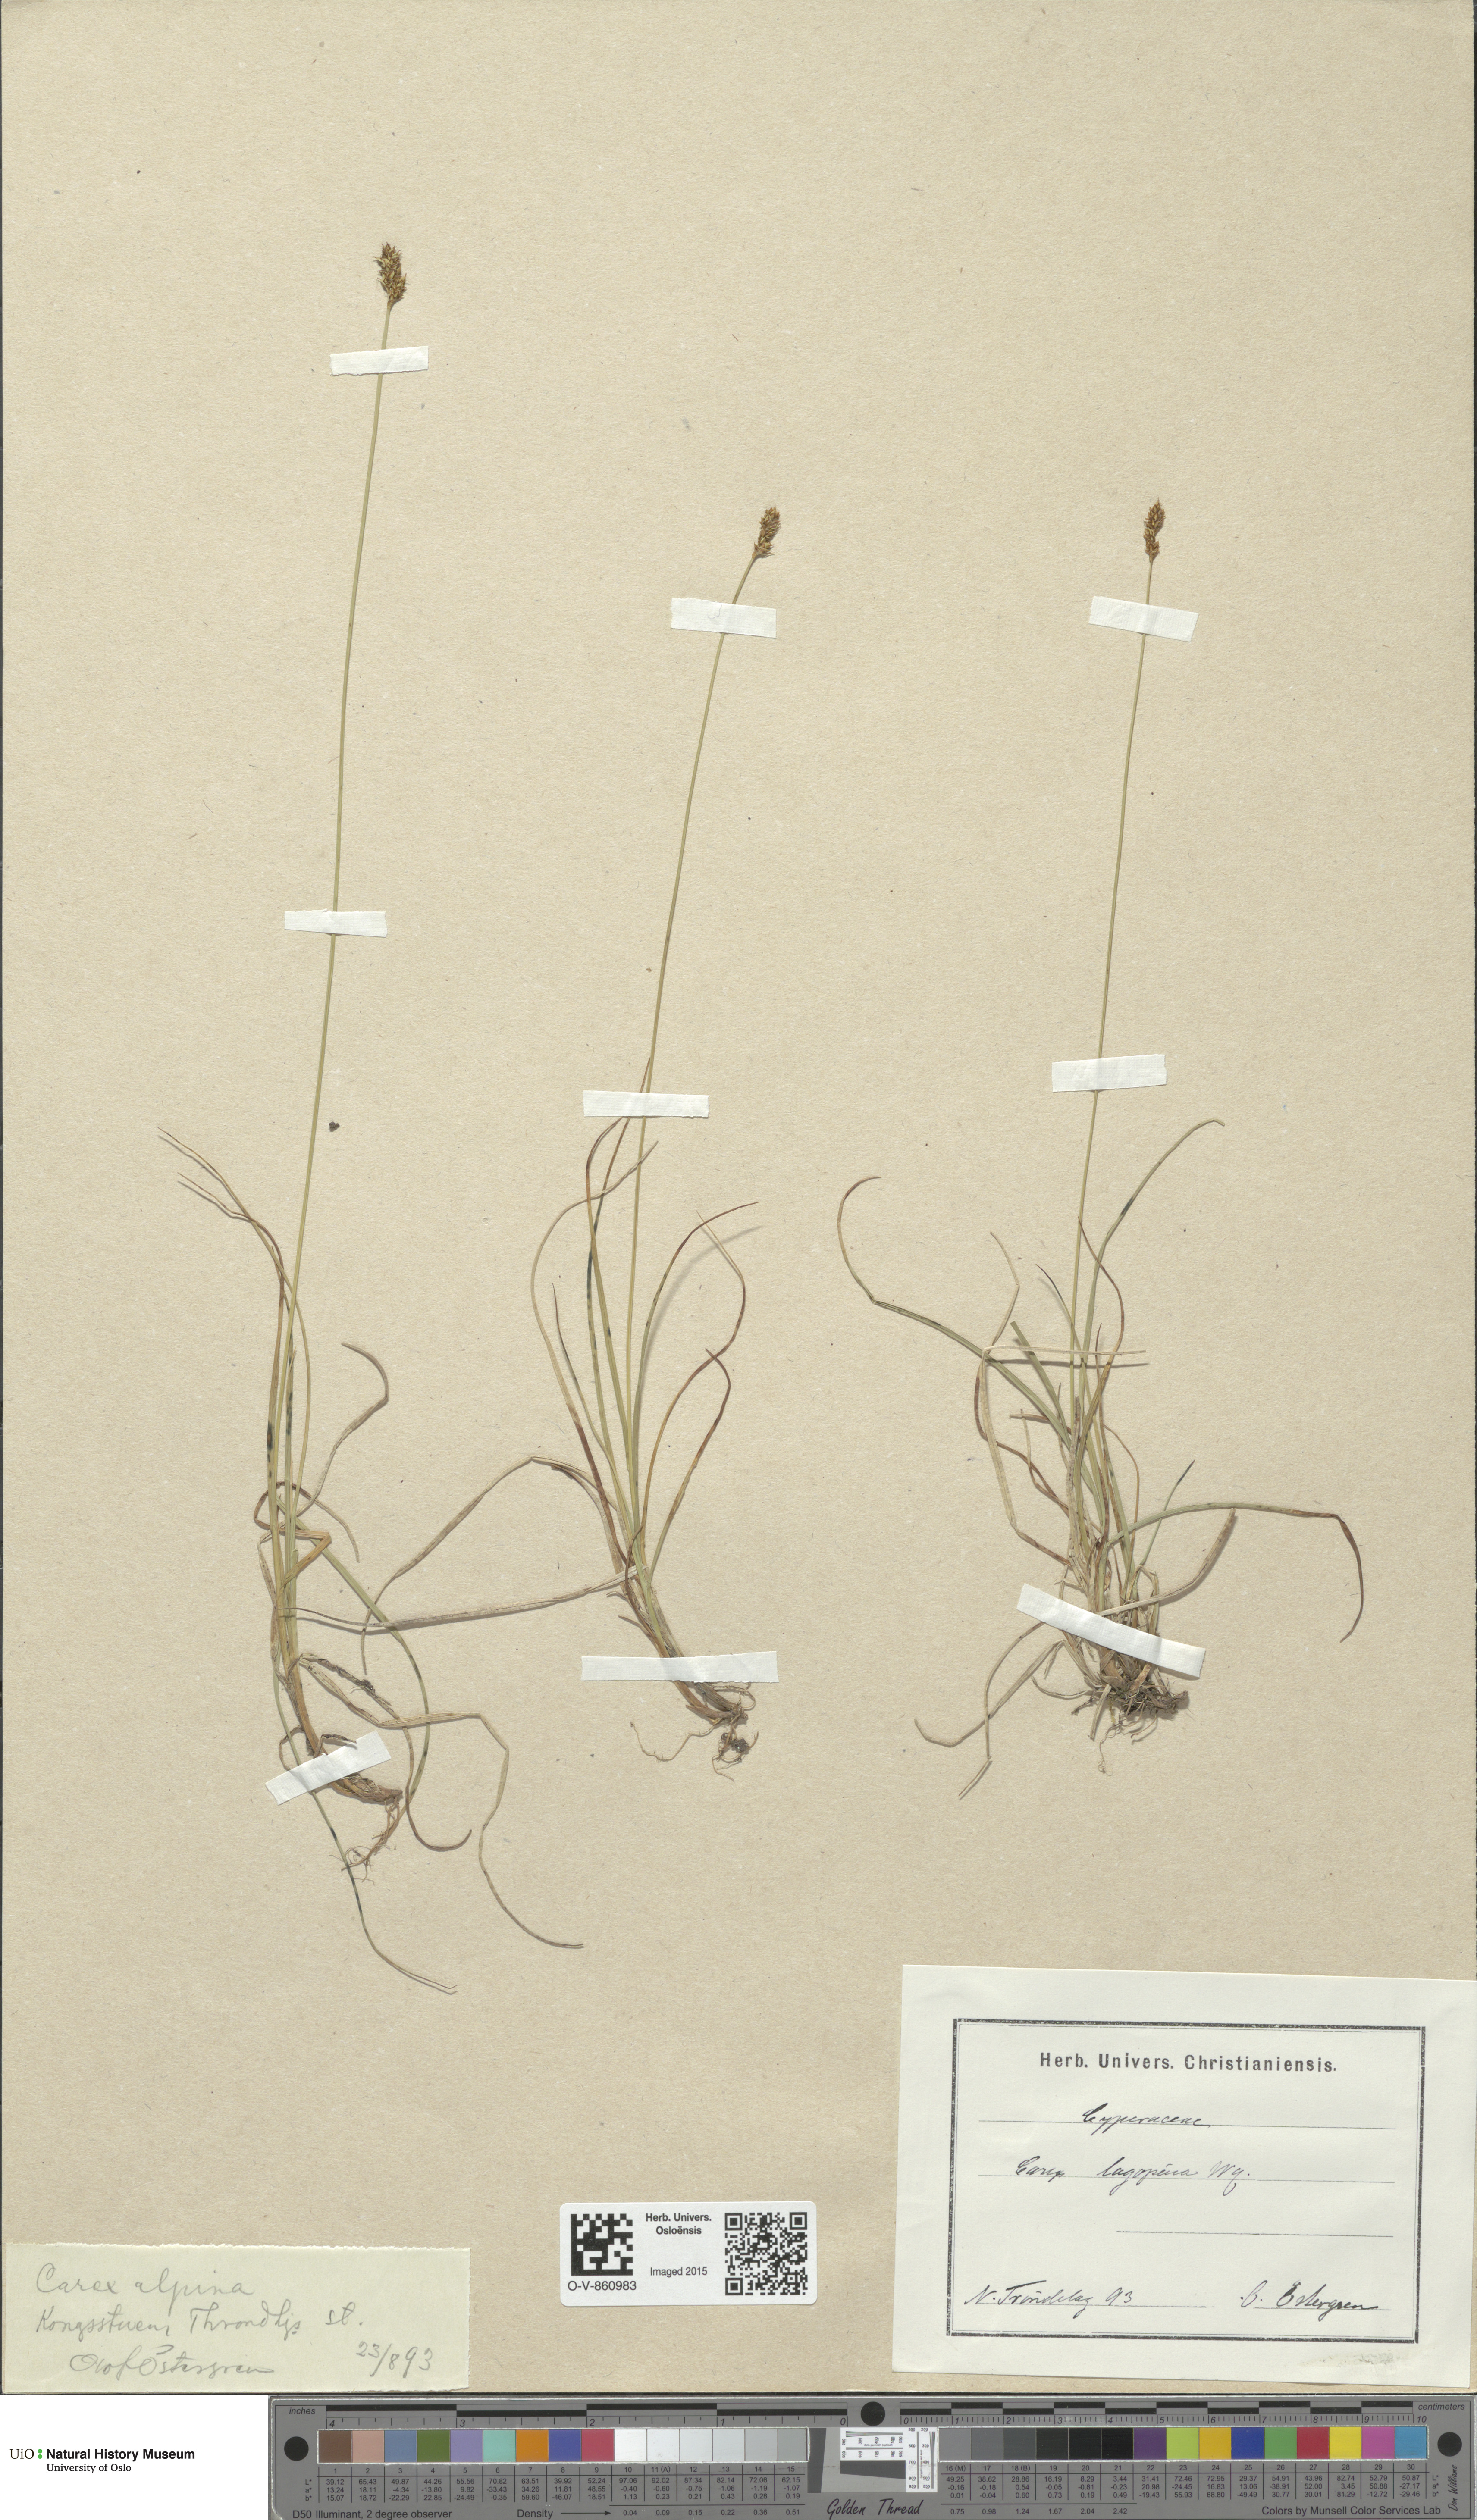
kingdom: Plantae
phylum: Tracheophyta
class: Liliopsida
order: Poales
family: Cyperaceae
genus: Carex
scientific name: Carex lachenalii
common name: Hare's-foot sedge
